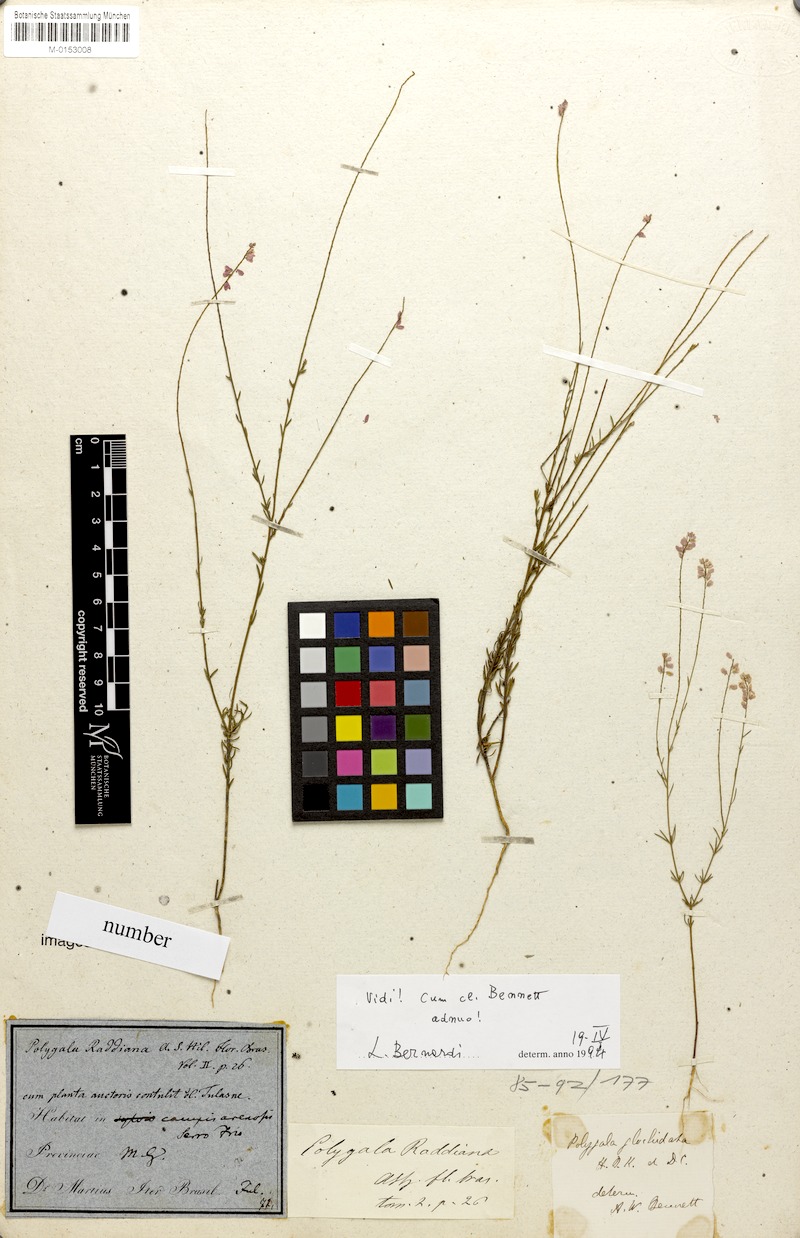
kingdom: Plantae
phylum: Tracheophyta
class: Magnoliopsida
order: Fabales
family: Polygalaceae
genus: Polygala
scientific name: Polygala glochidiata
